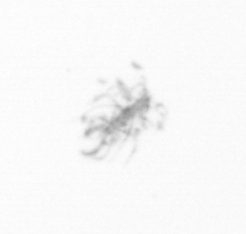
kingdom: Chromista
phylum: Ochrophyta
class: Bacillariophyceae
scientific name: Bacillariophyceae
